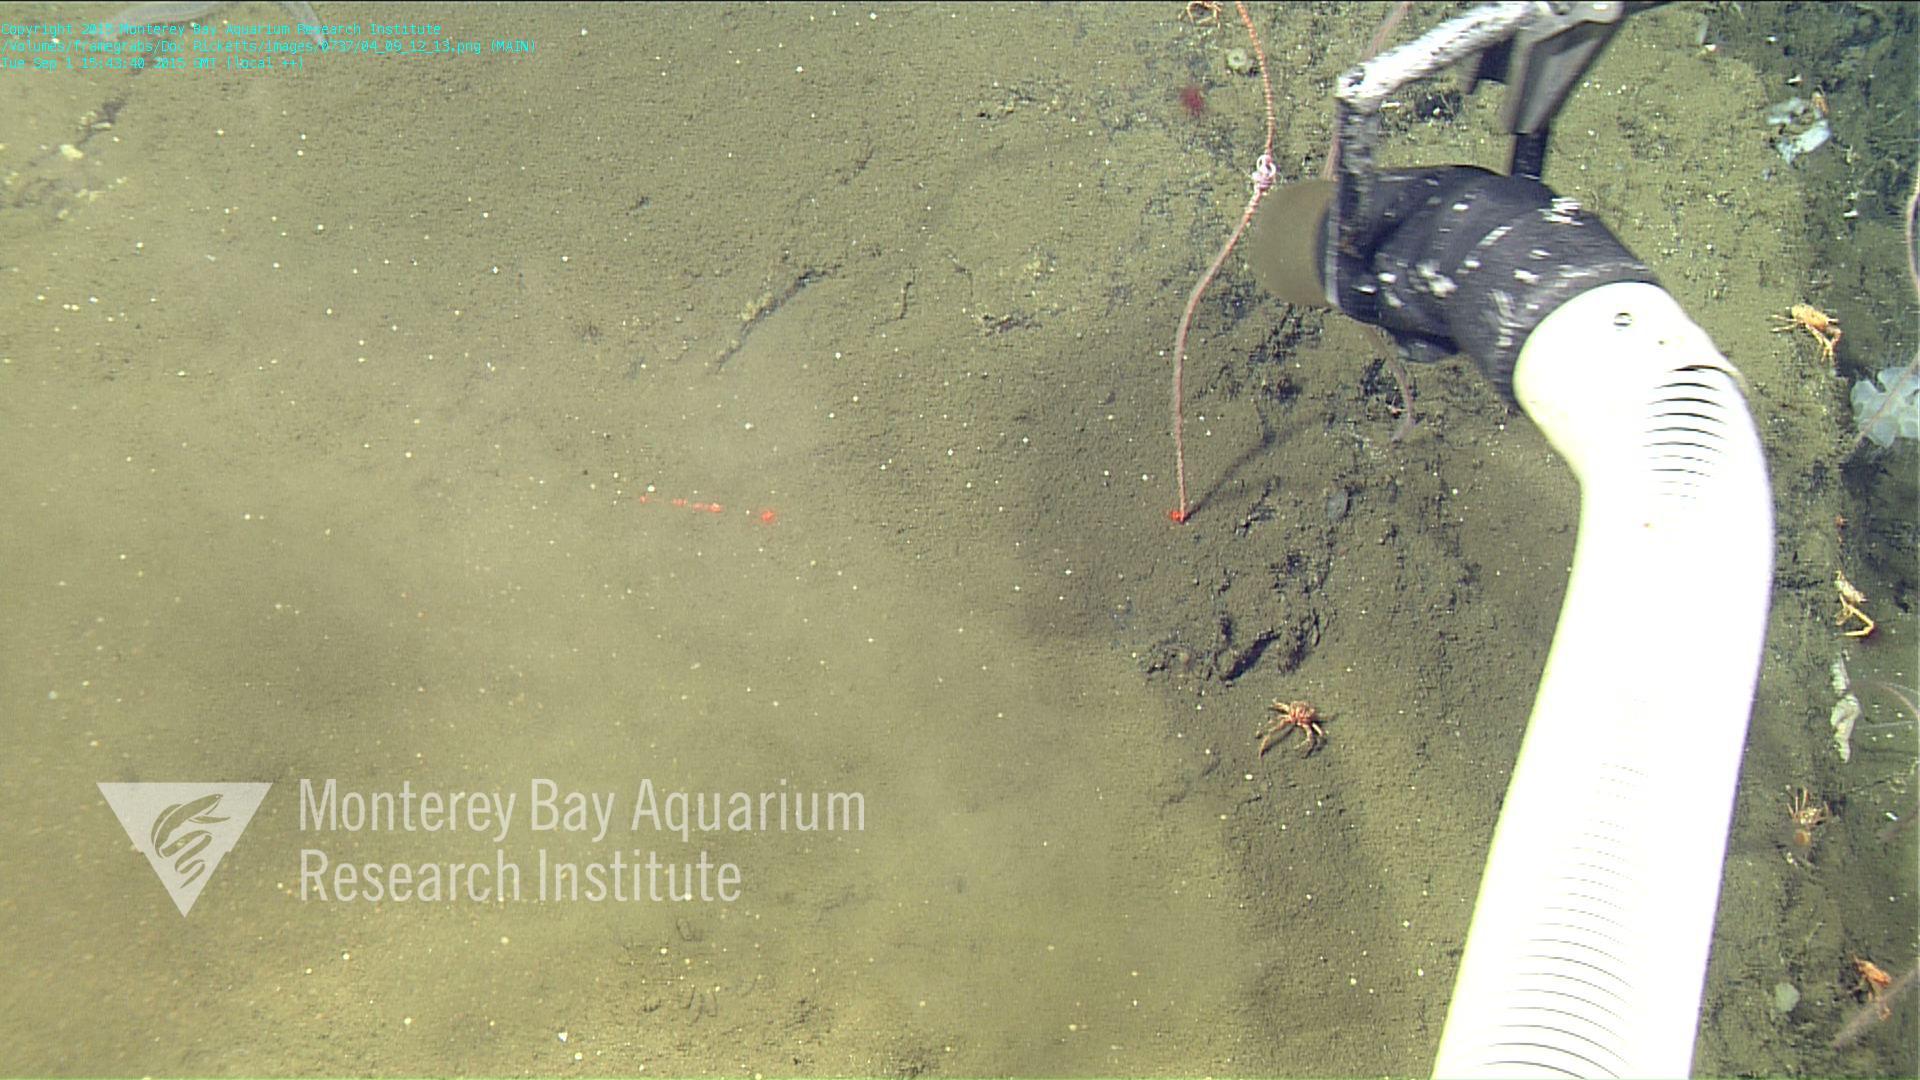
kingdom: Animalia
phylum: Cnidaria
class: Anthozoa
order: Scleralcyonacea
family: Protoptilidae
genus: Distichoptilum
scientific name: Distichoptilum
